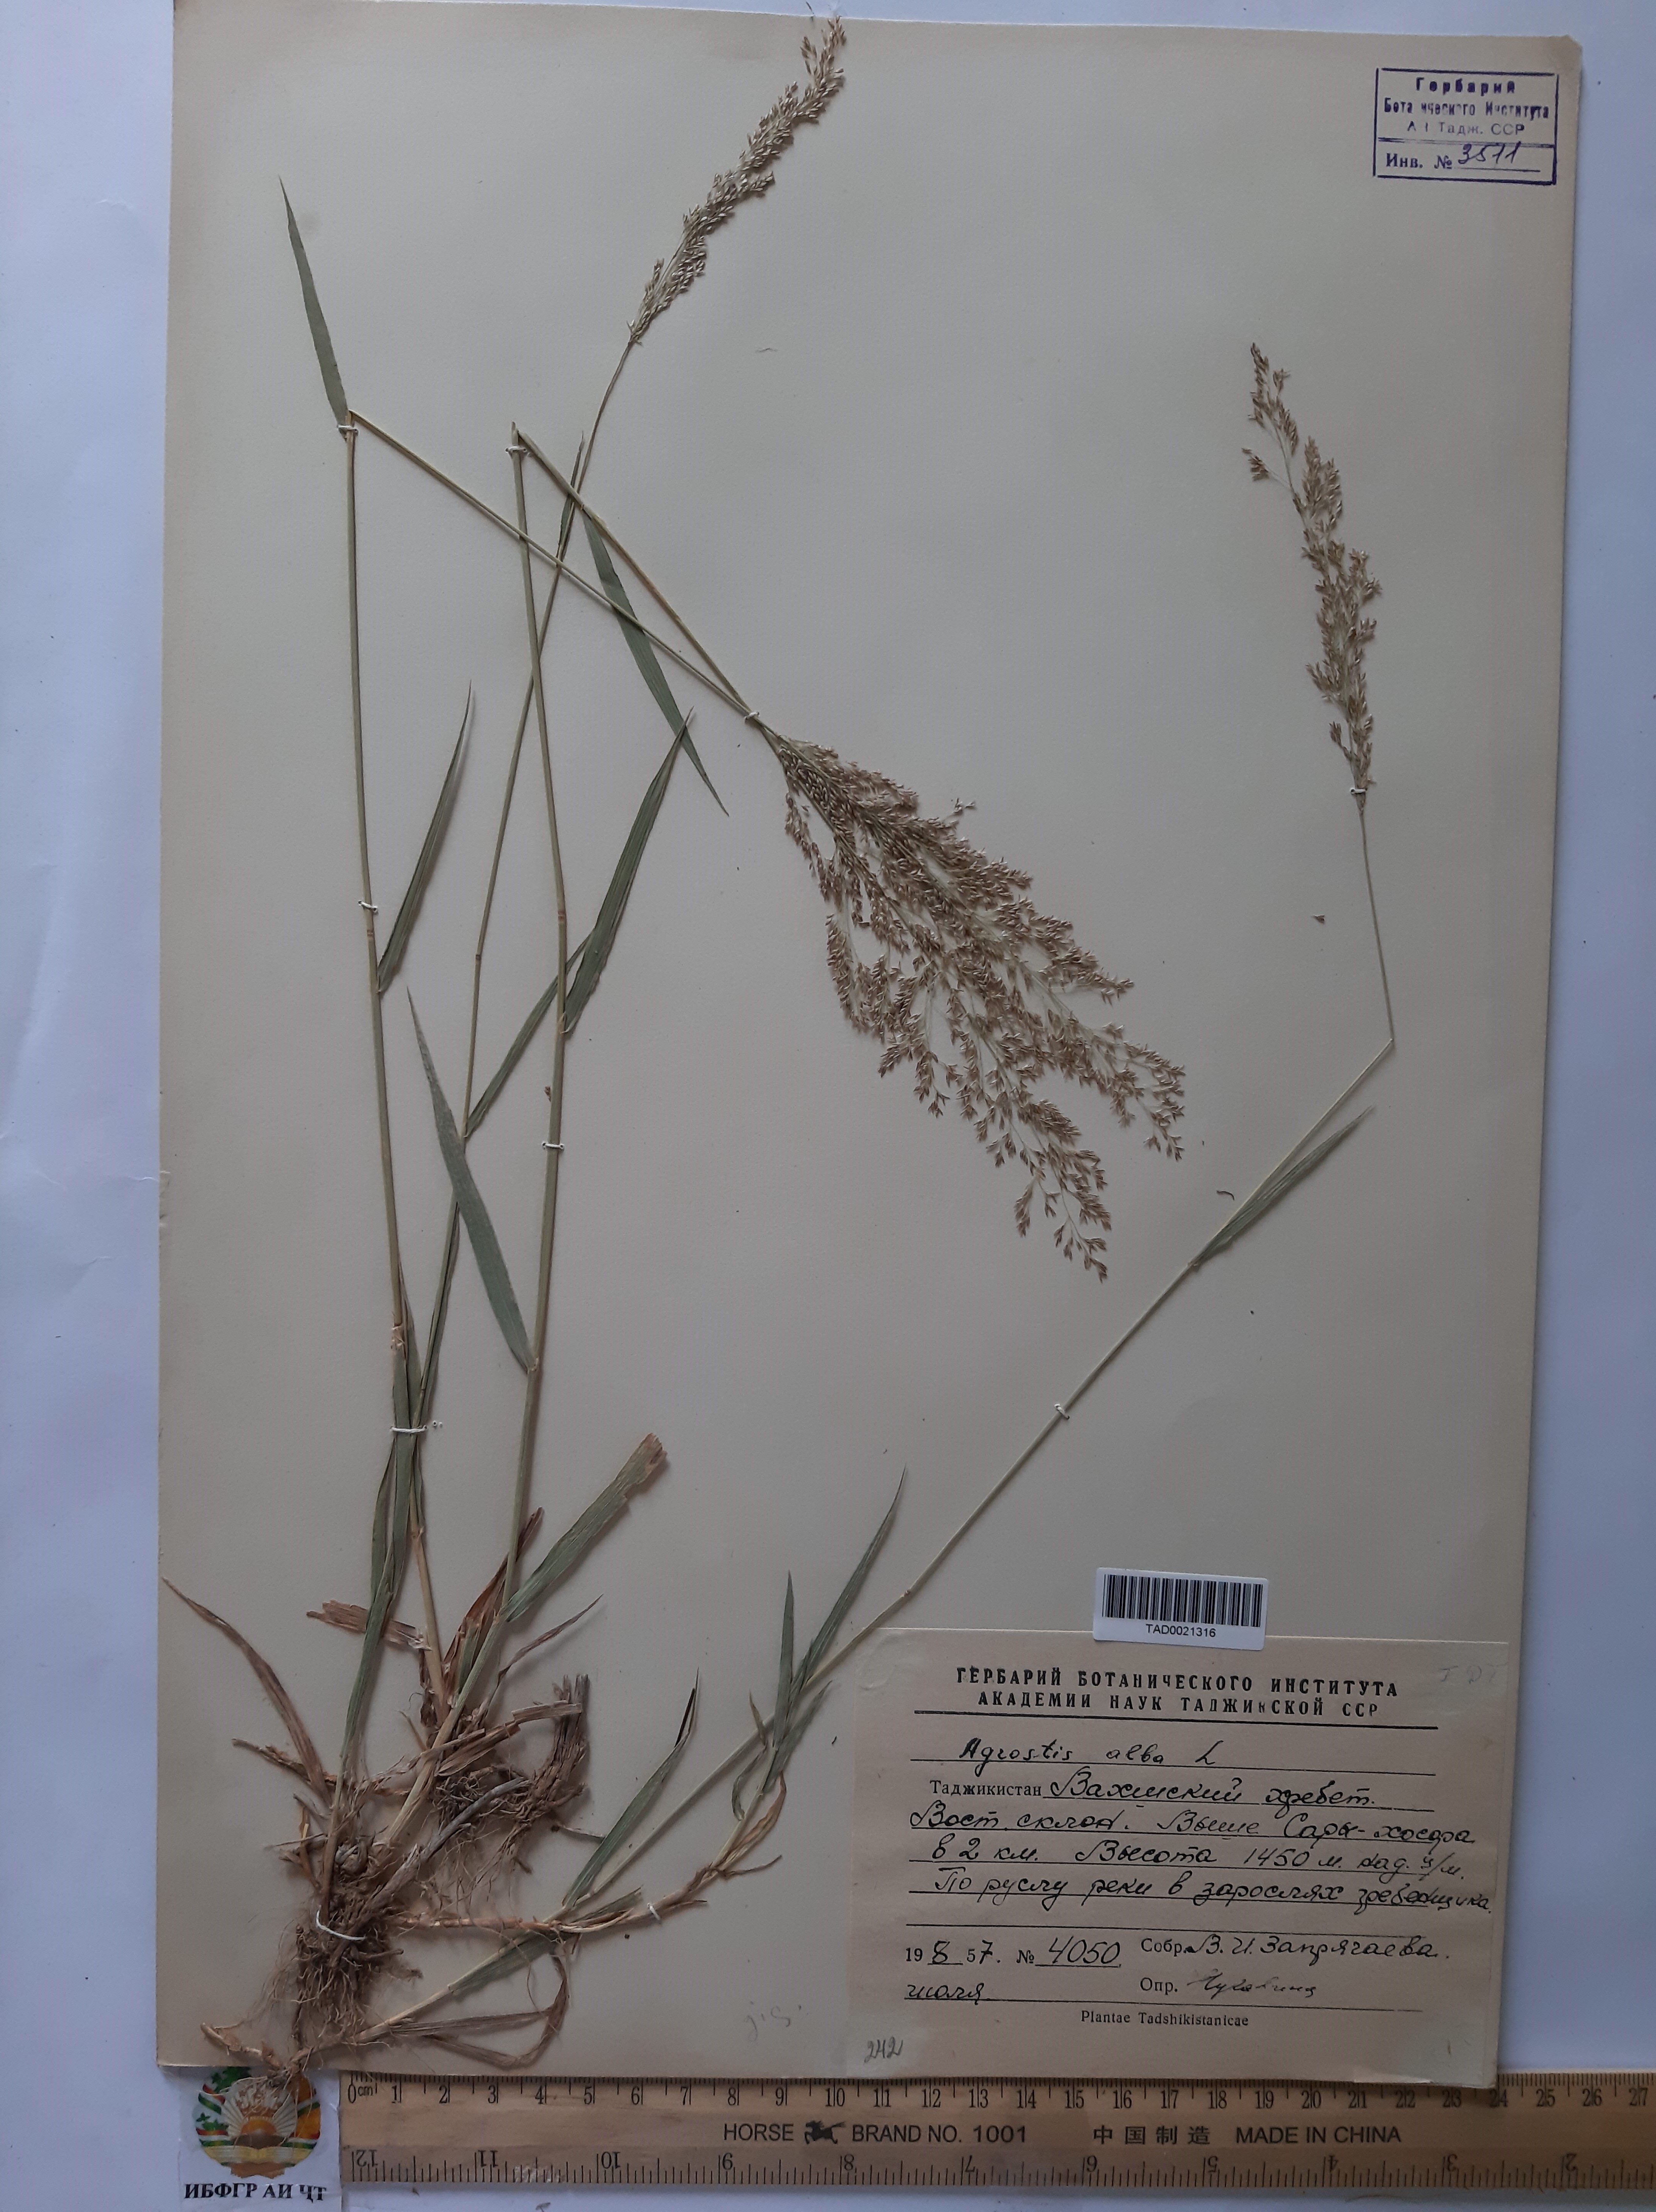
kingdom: Plantae
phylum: Tracheophyta
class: Liliopsida
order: Poales
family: Poaceae
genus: Poa
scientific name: Poa nemoralis
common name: Wood bluegrass
